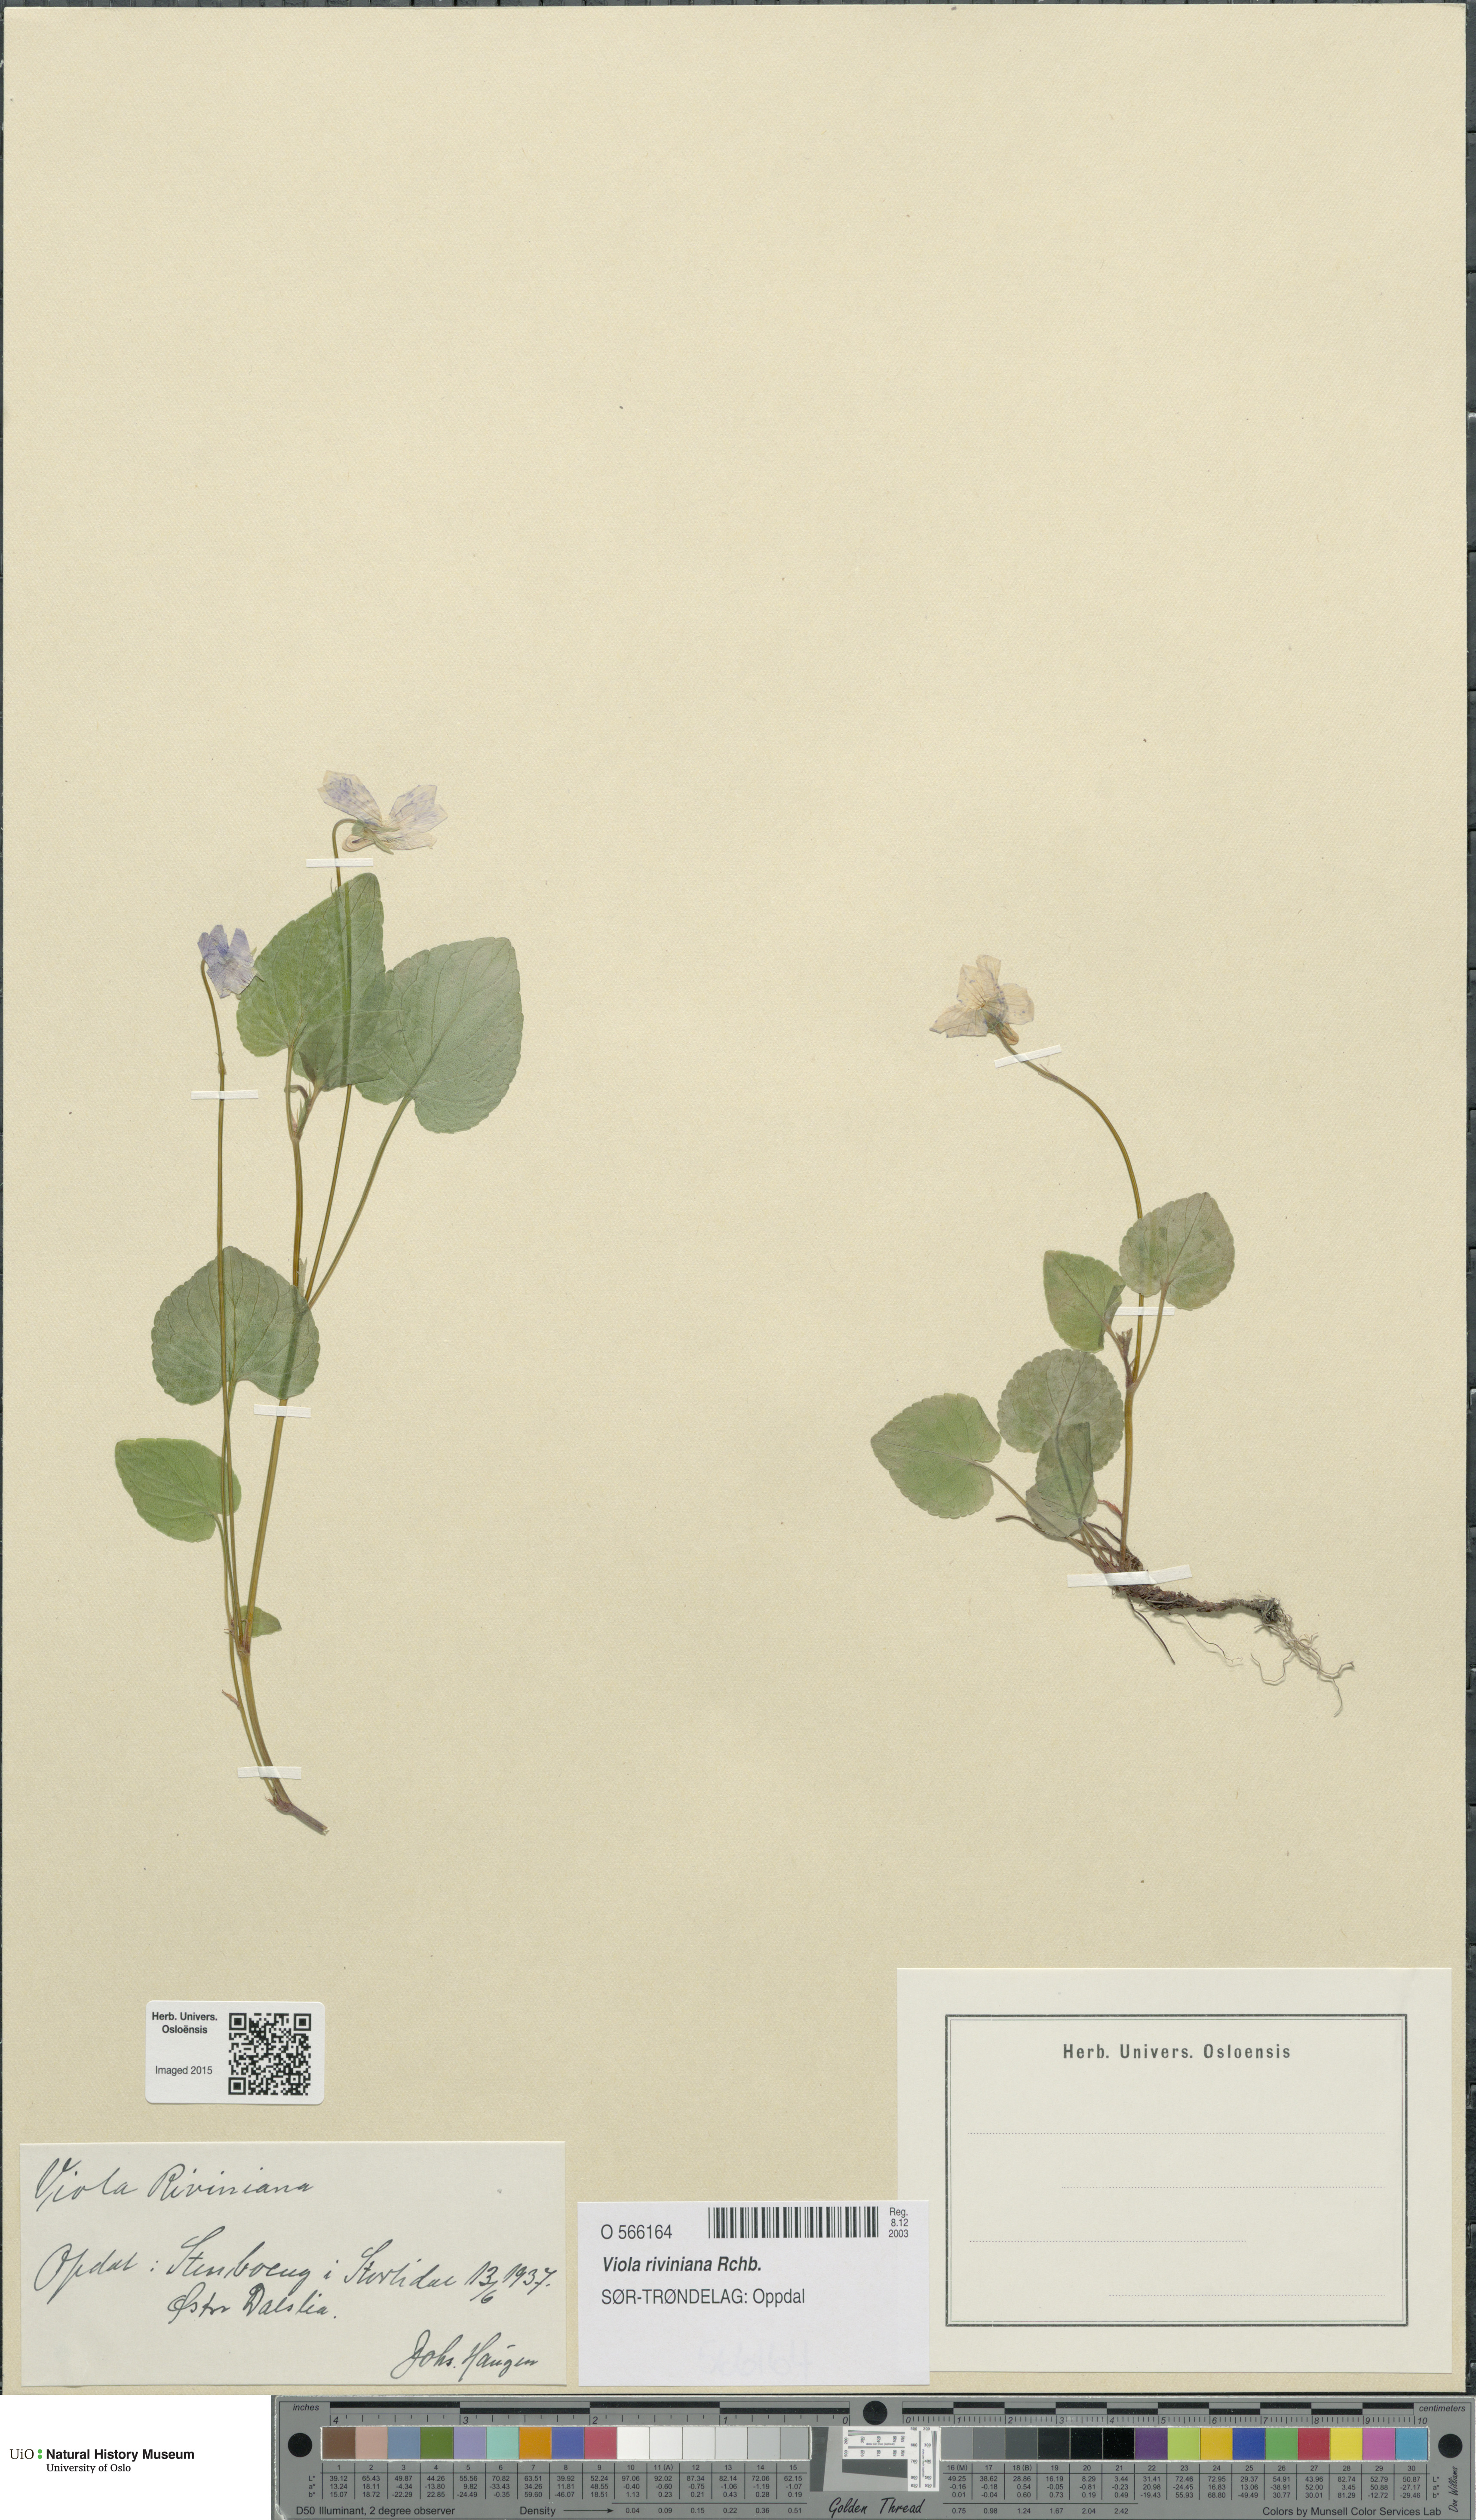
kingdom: Plantae
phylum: Tracheophyta
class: Magnoliopsida
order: Malpighiales
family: Violaceae
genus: Viola
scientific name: Viola riviniana
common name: Common dog-violet
